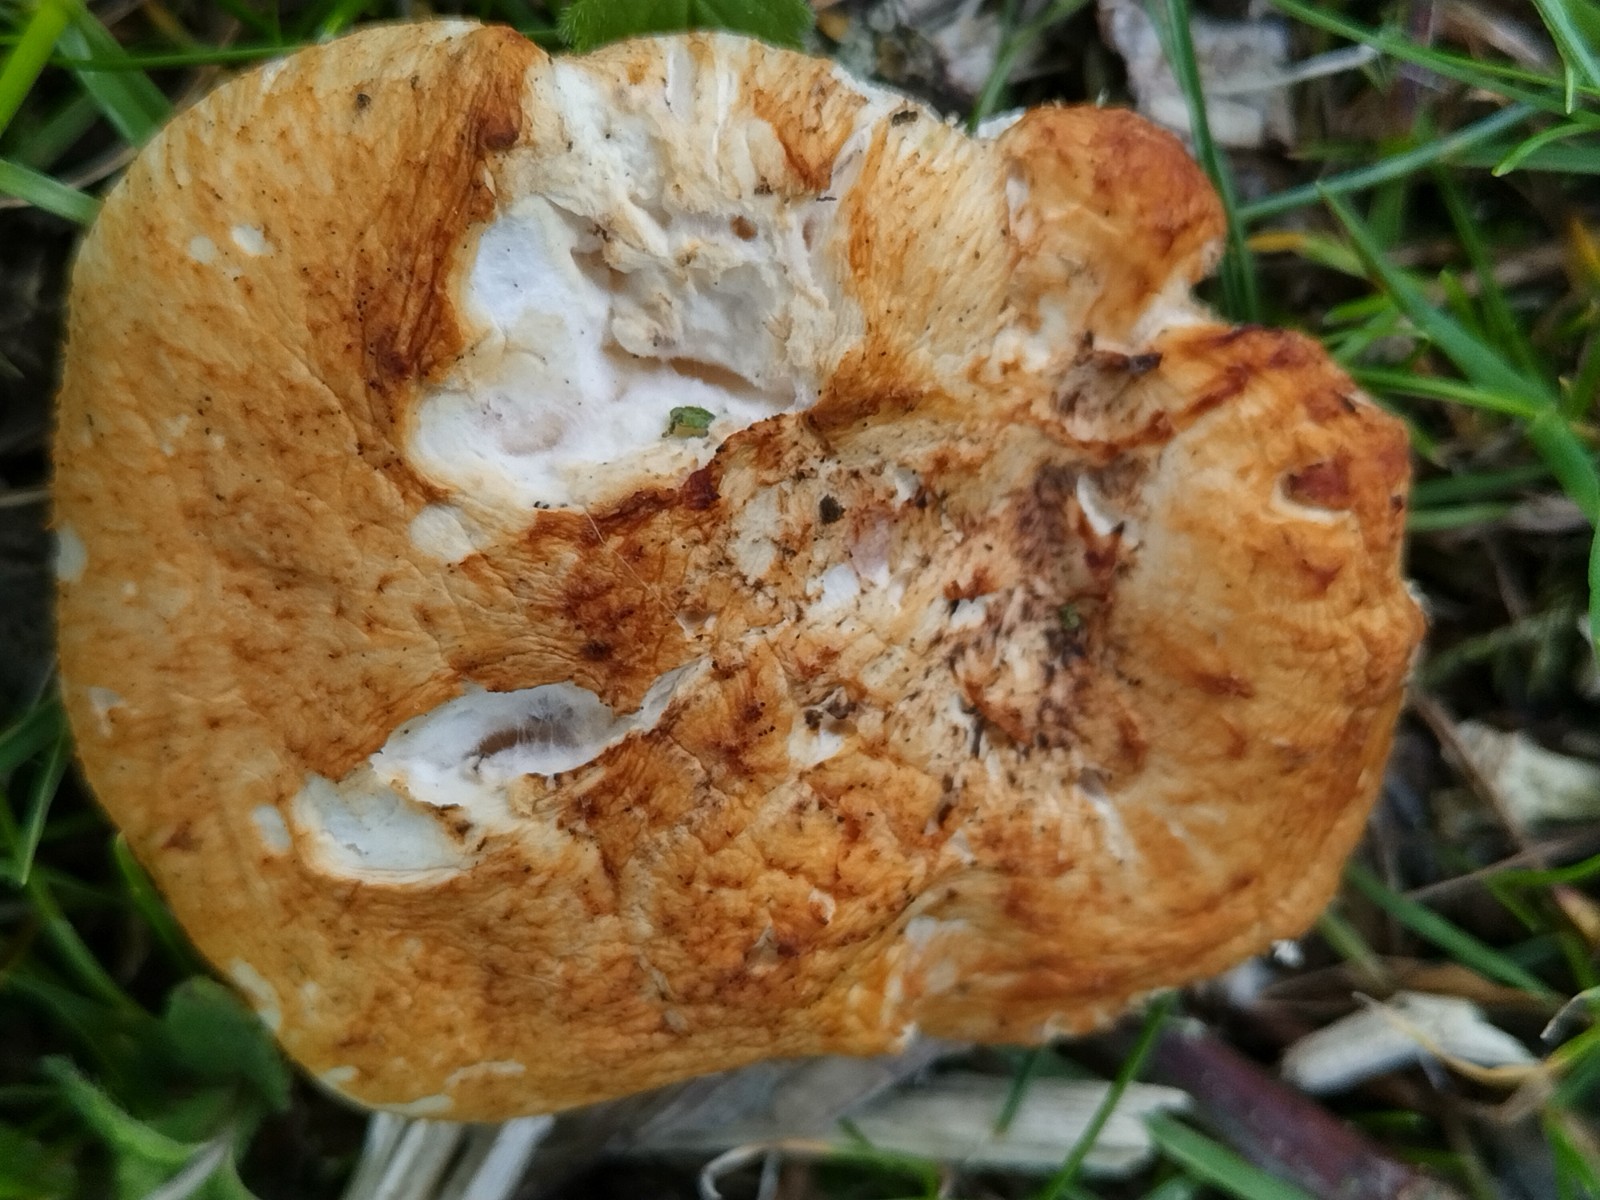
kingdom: Fungi
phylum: Basidiomycota
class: Agaricomycetes
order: Polyporales
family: Polyporaceae
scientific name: Polyporaceae
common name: poresvampfamilien
